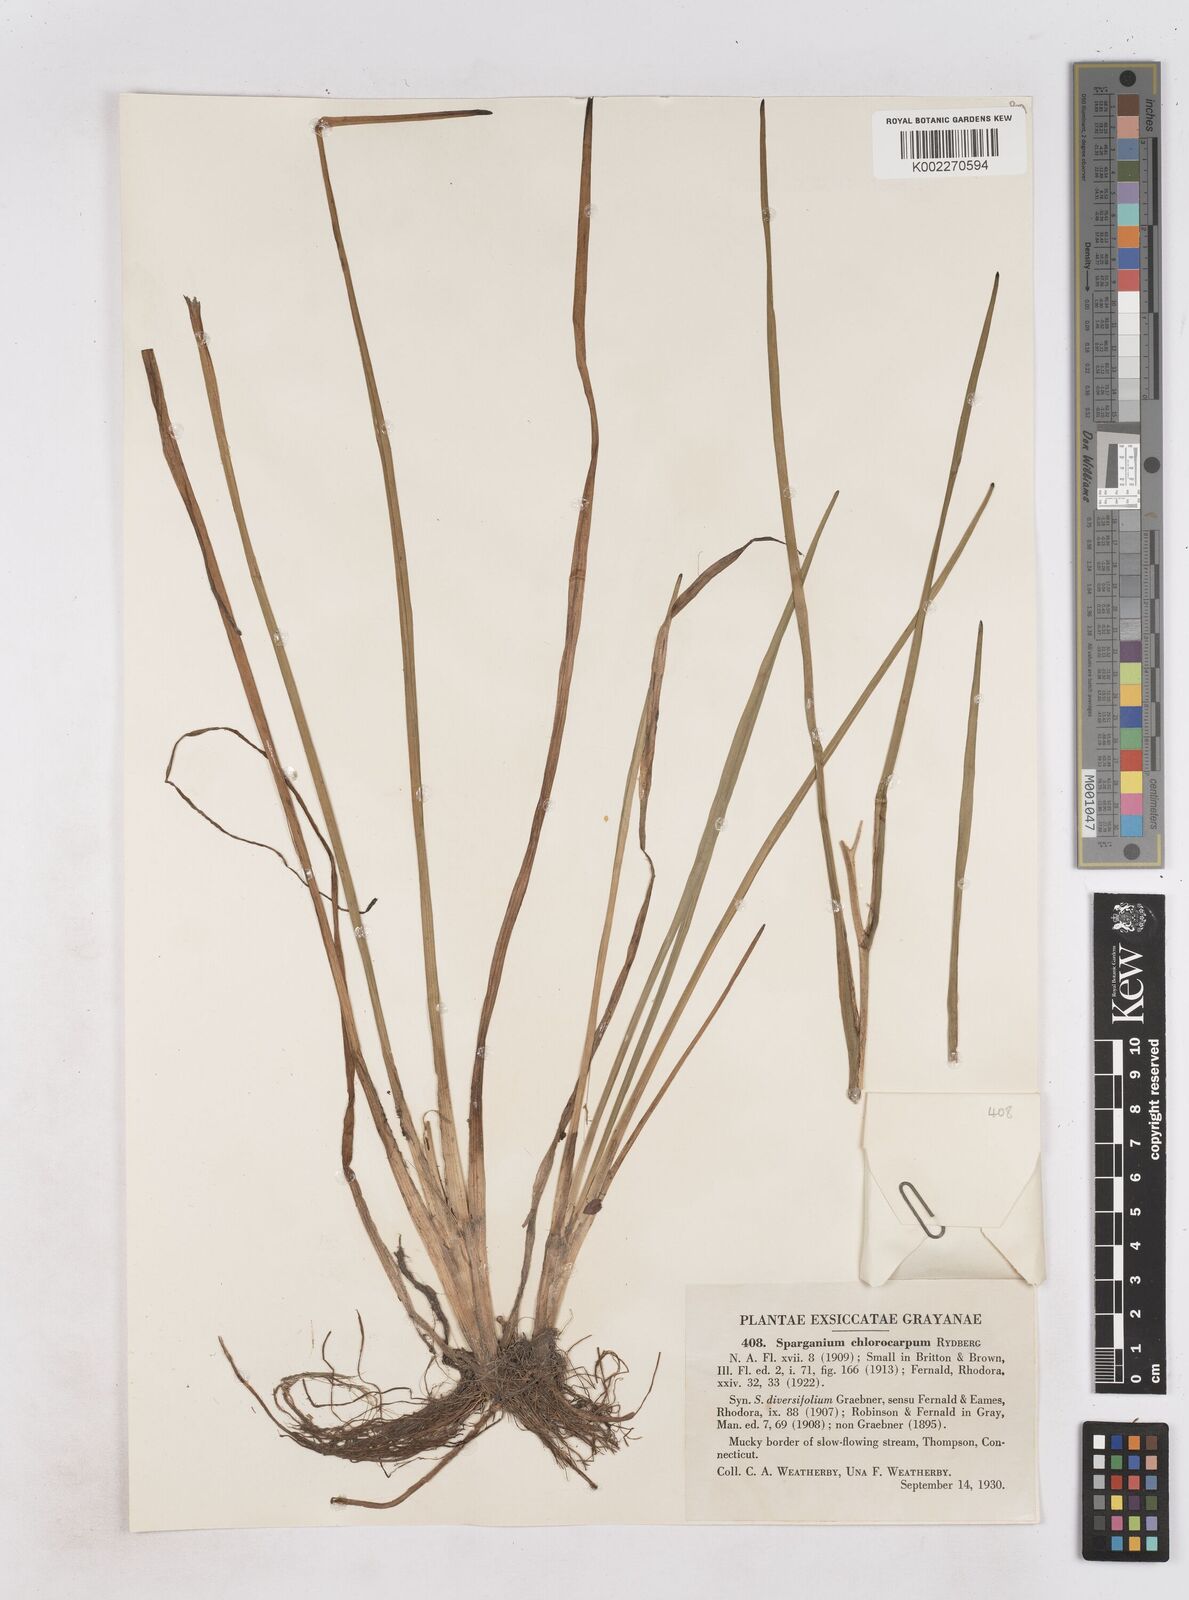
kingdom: Plantae
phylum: Tracheophyta
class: Liliopsida
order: Poales
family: Typhaceae
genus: Sparganium
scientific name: Sparganium emersum
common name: Unbranched bur-reed
